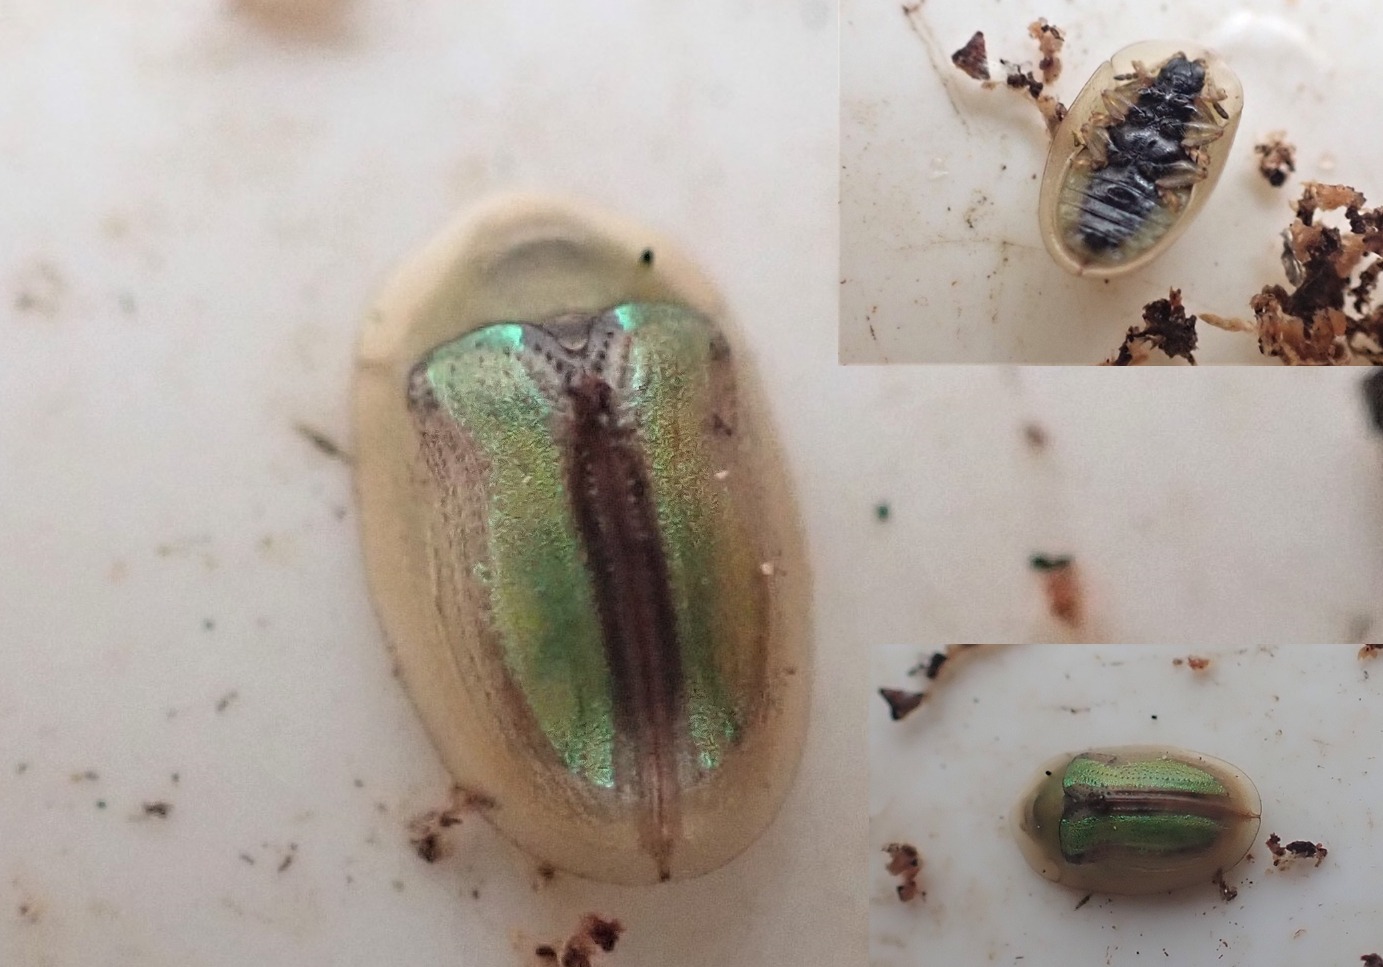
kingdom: Animalia
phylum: Arthropoda
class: Insecta
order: Coleoptera
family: Chrysomelidae
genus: Cassida
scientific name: Cassida vittata
